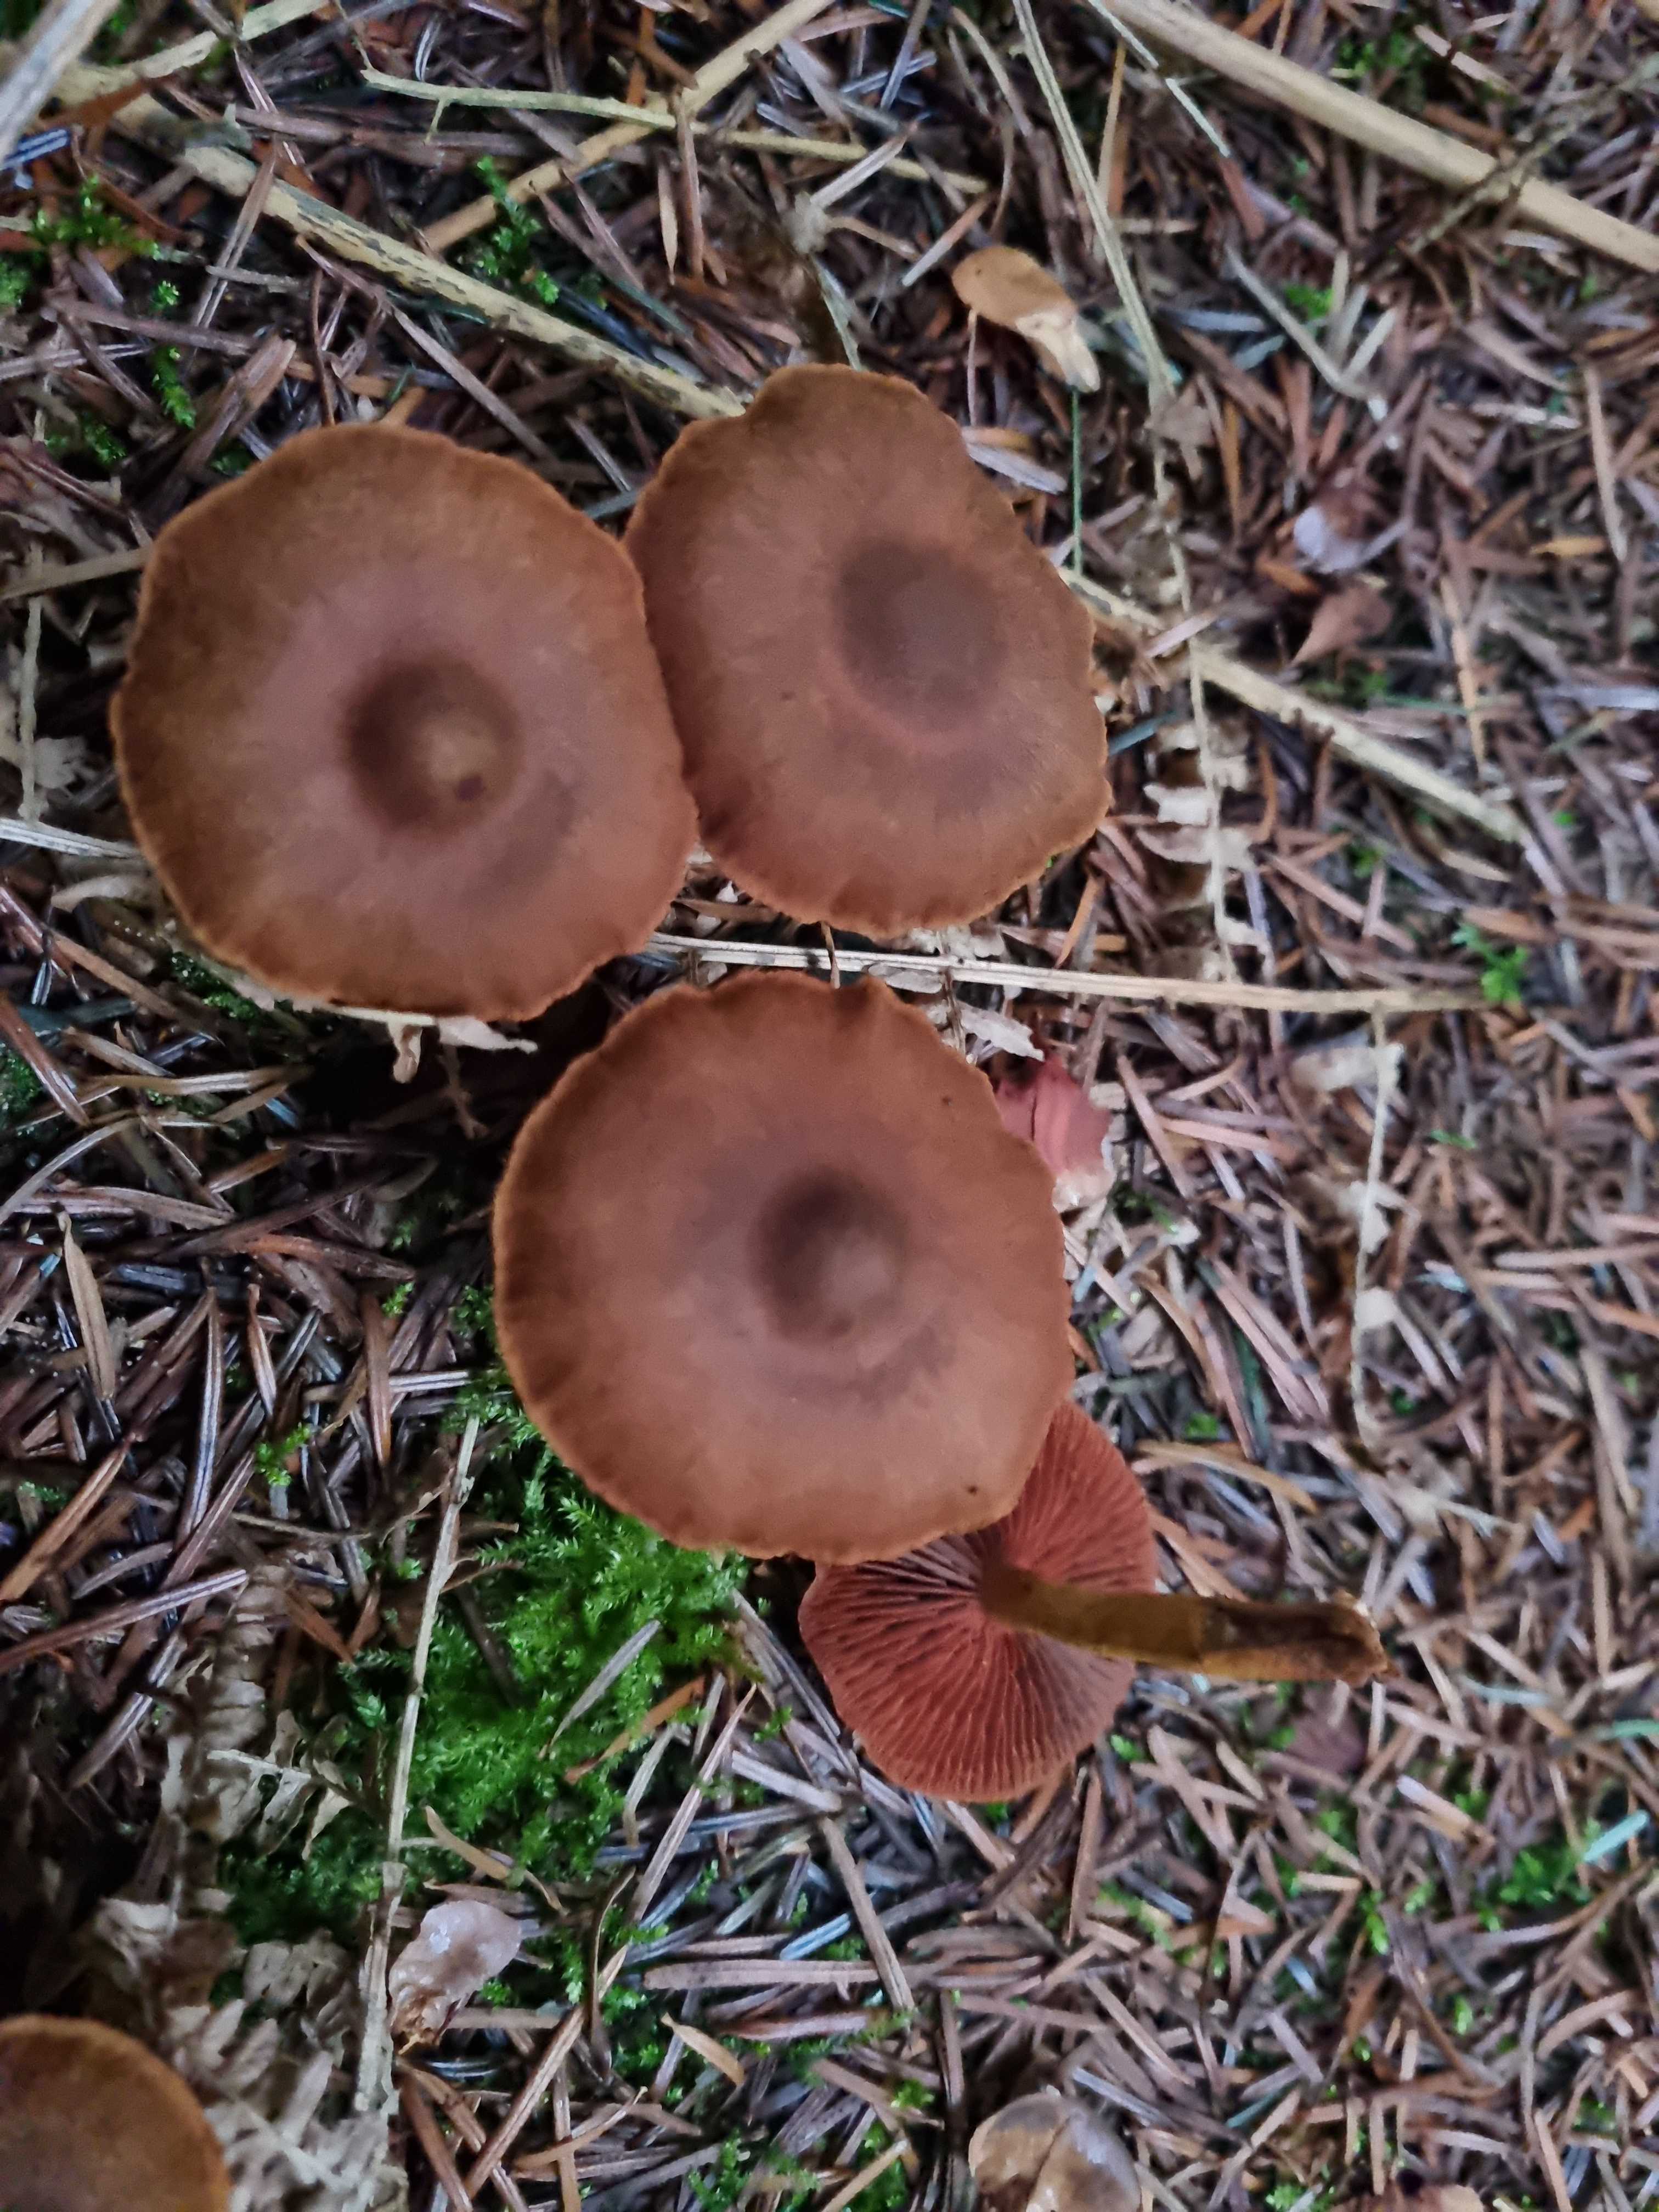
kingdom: Fungi
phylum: Basidiomycota
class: Agaricomycetes
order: Agaricales
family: Cortinariaceae
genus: Cortinarius
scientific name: Cortinarius
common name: cinnoberbladet slørhat
